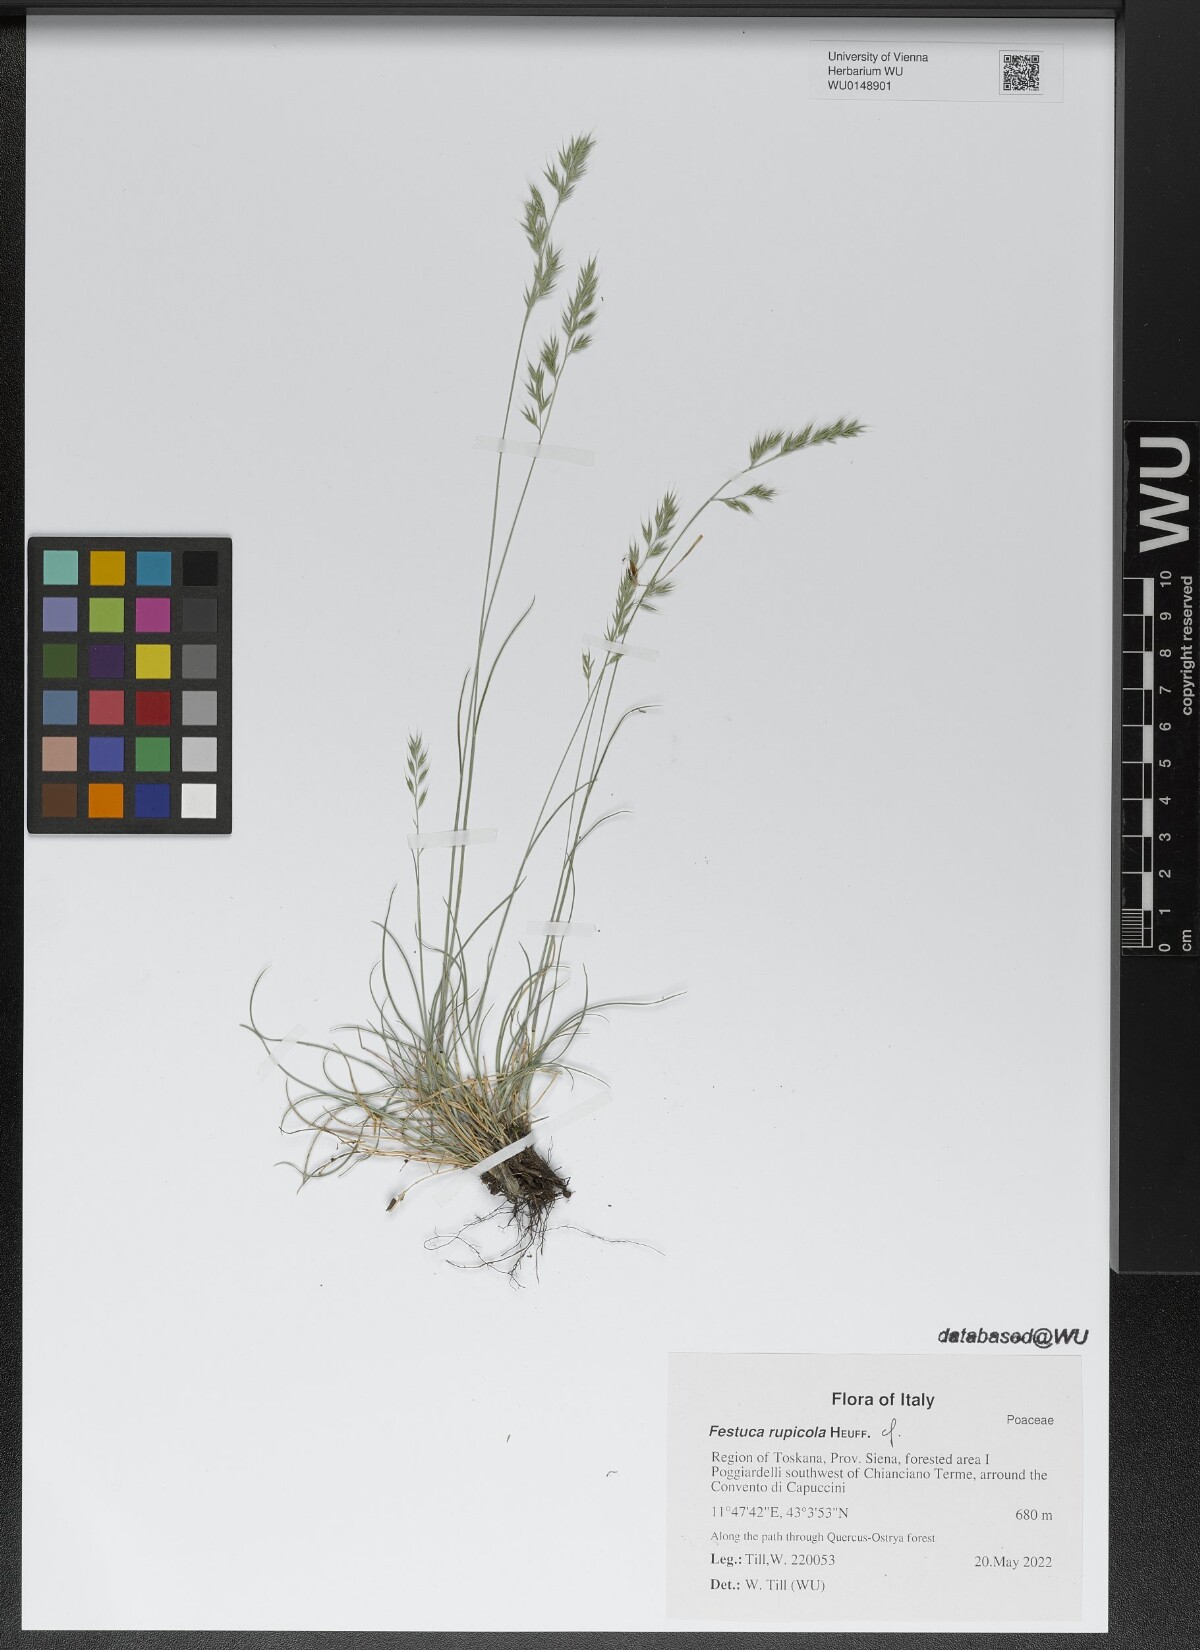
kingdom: Plantae
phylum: Tracheophyta
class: Liliopsida
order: Poales
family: Poaceae
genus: Festuca
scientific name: Festuca rupicola
